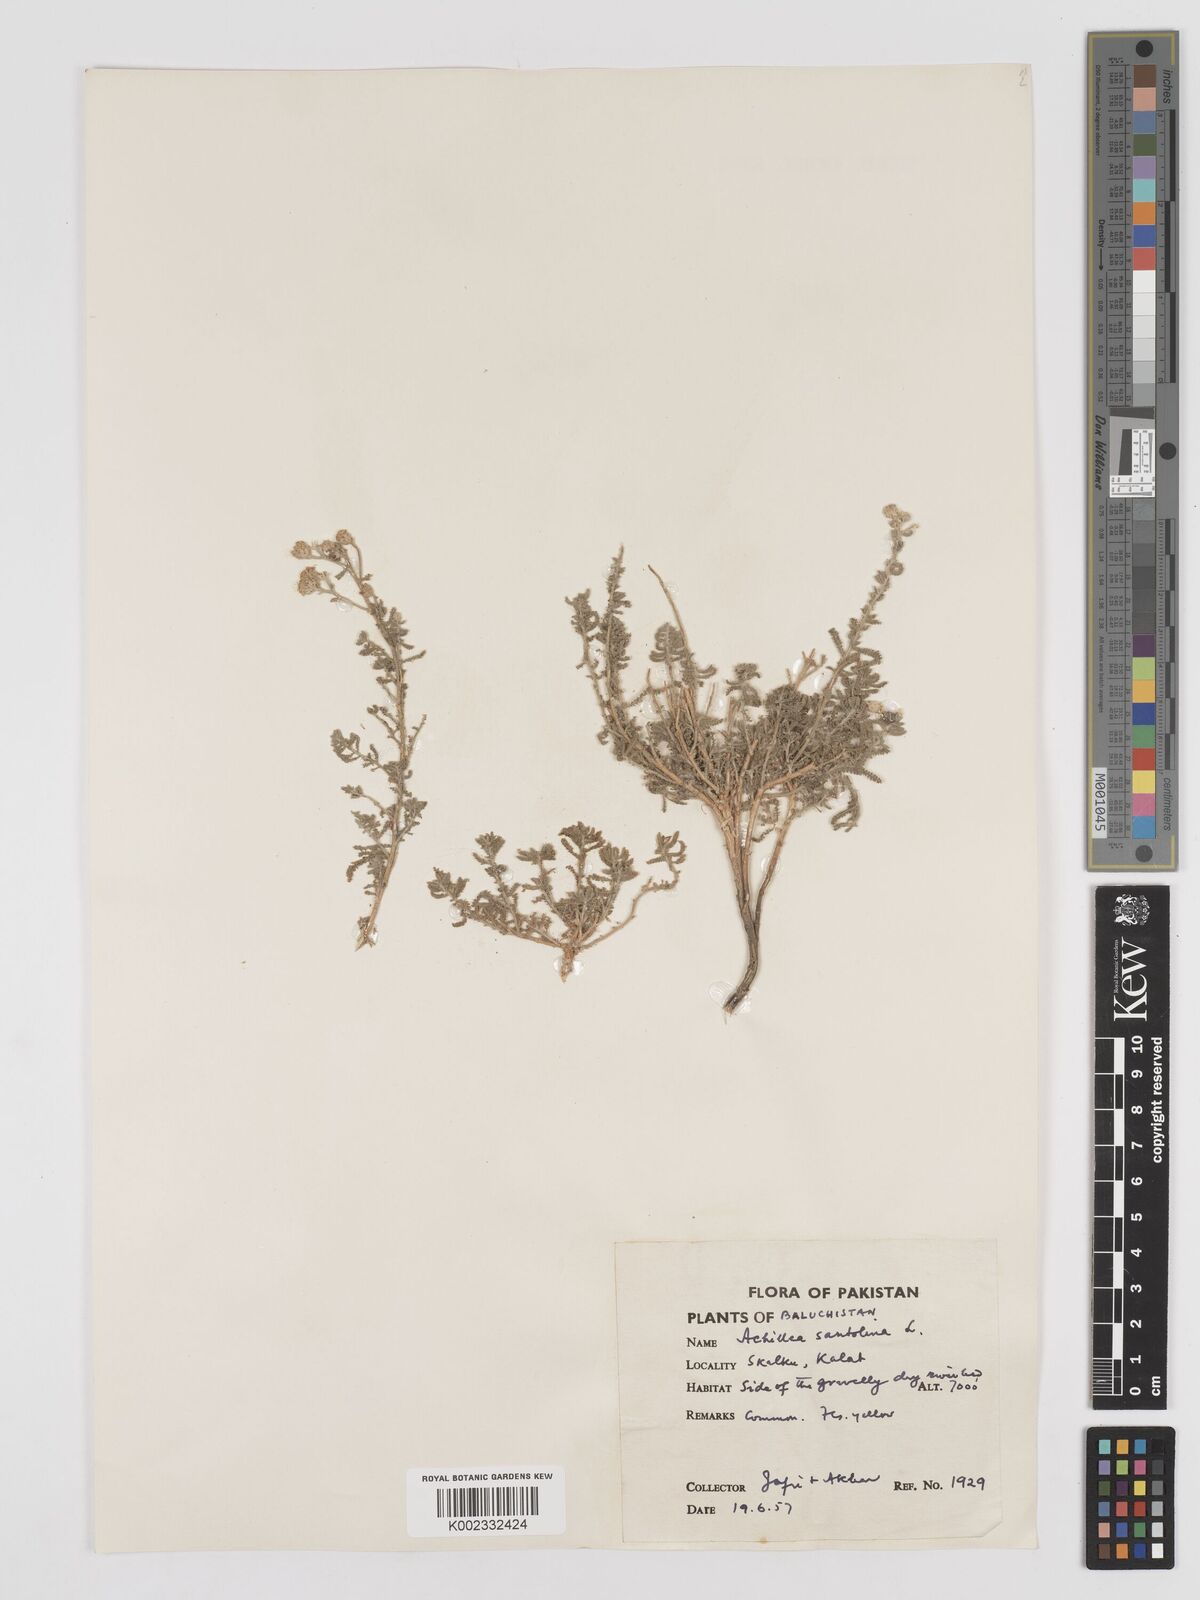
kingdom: Plantae
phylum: Tracheophyta
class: Magnoliopsida
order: Asterales
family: Asteraceae
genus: Achillea
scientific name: Achillea tenuifolia
